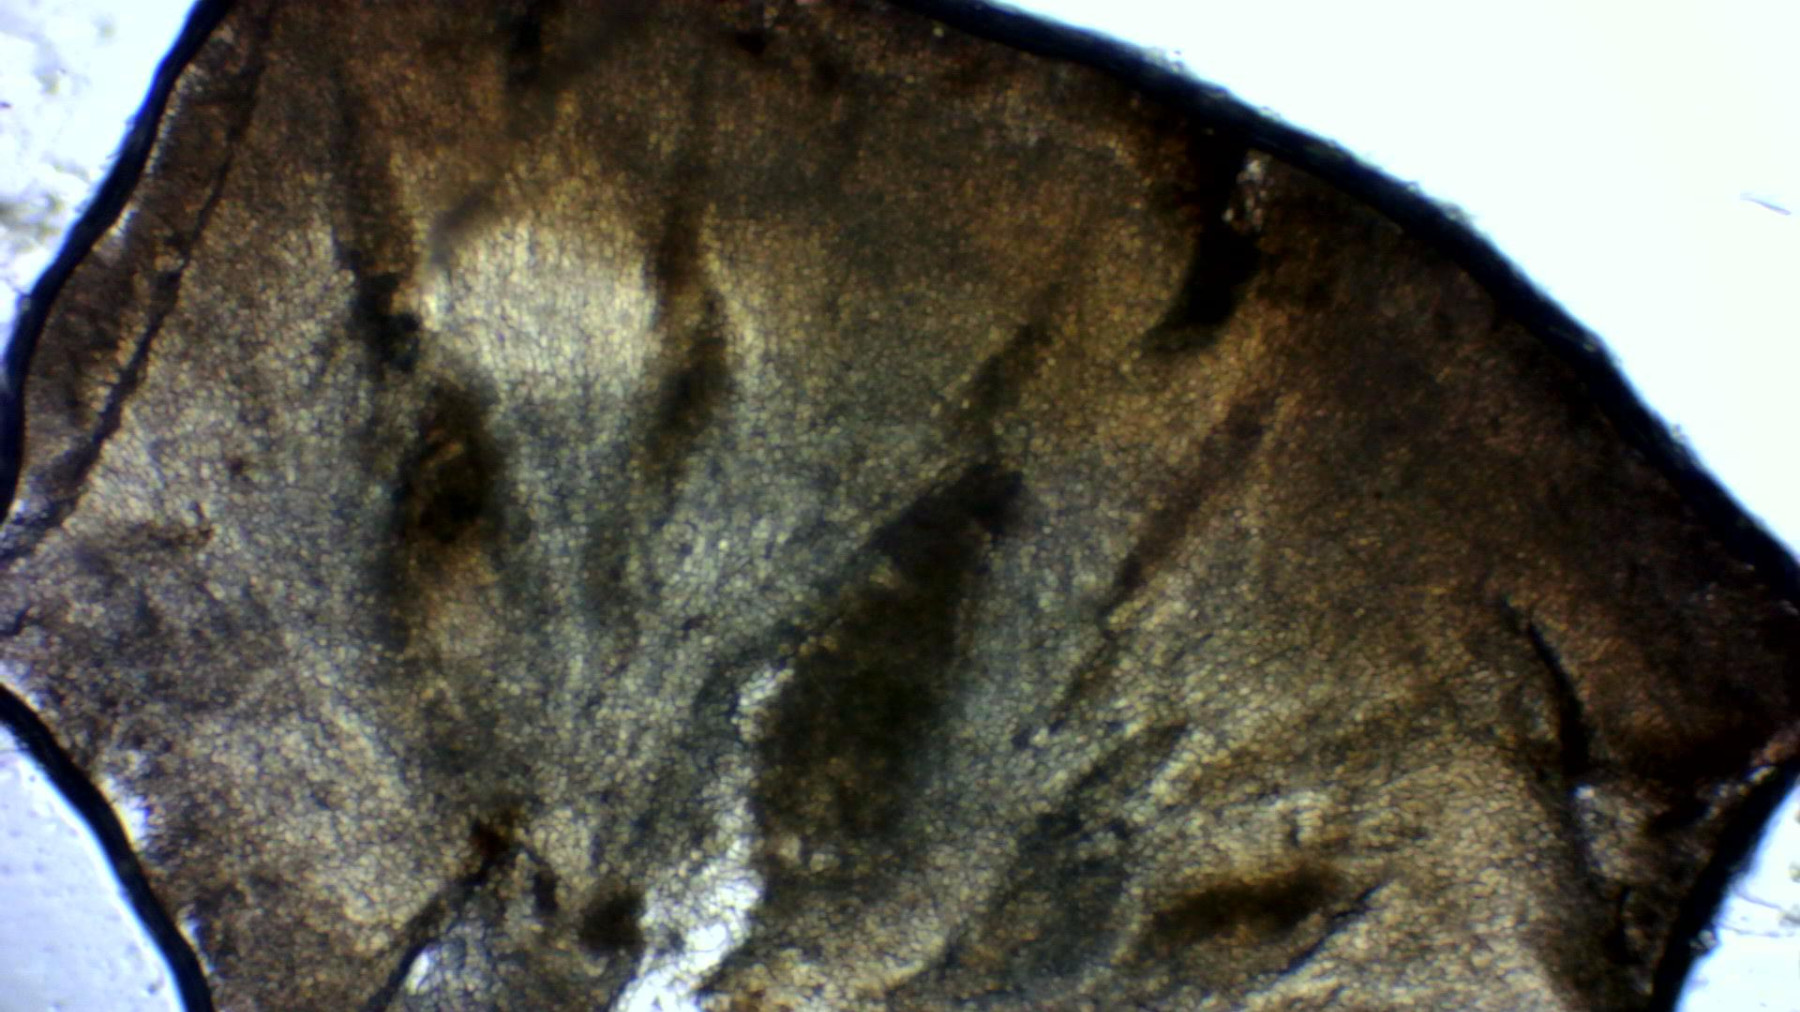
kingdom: Fungi
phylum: Ascomycota
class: Leotiomycetes
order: Helotiales
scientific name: Helotiales
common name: stilkskiveordenen
